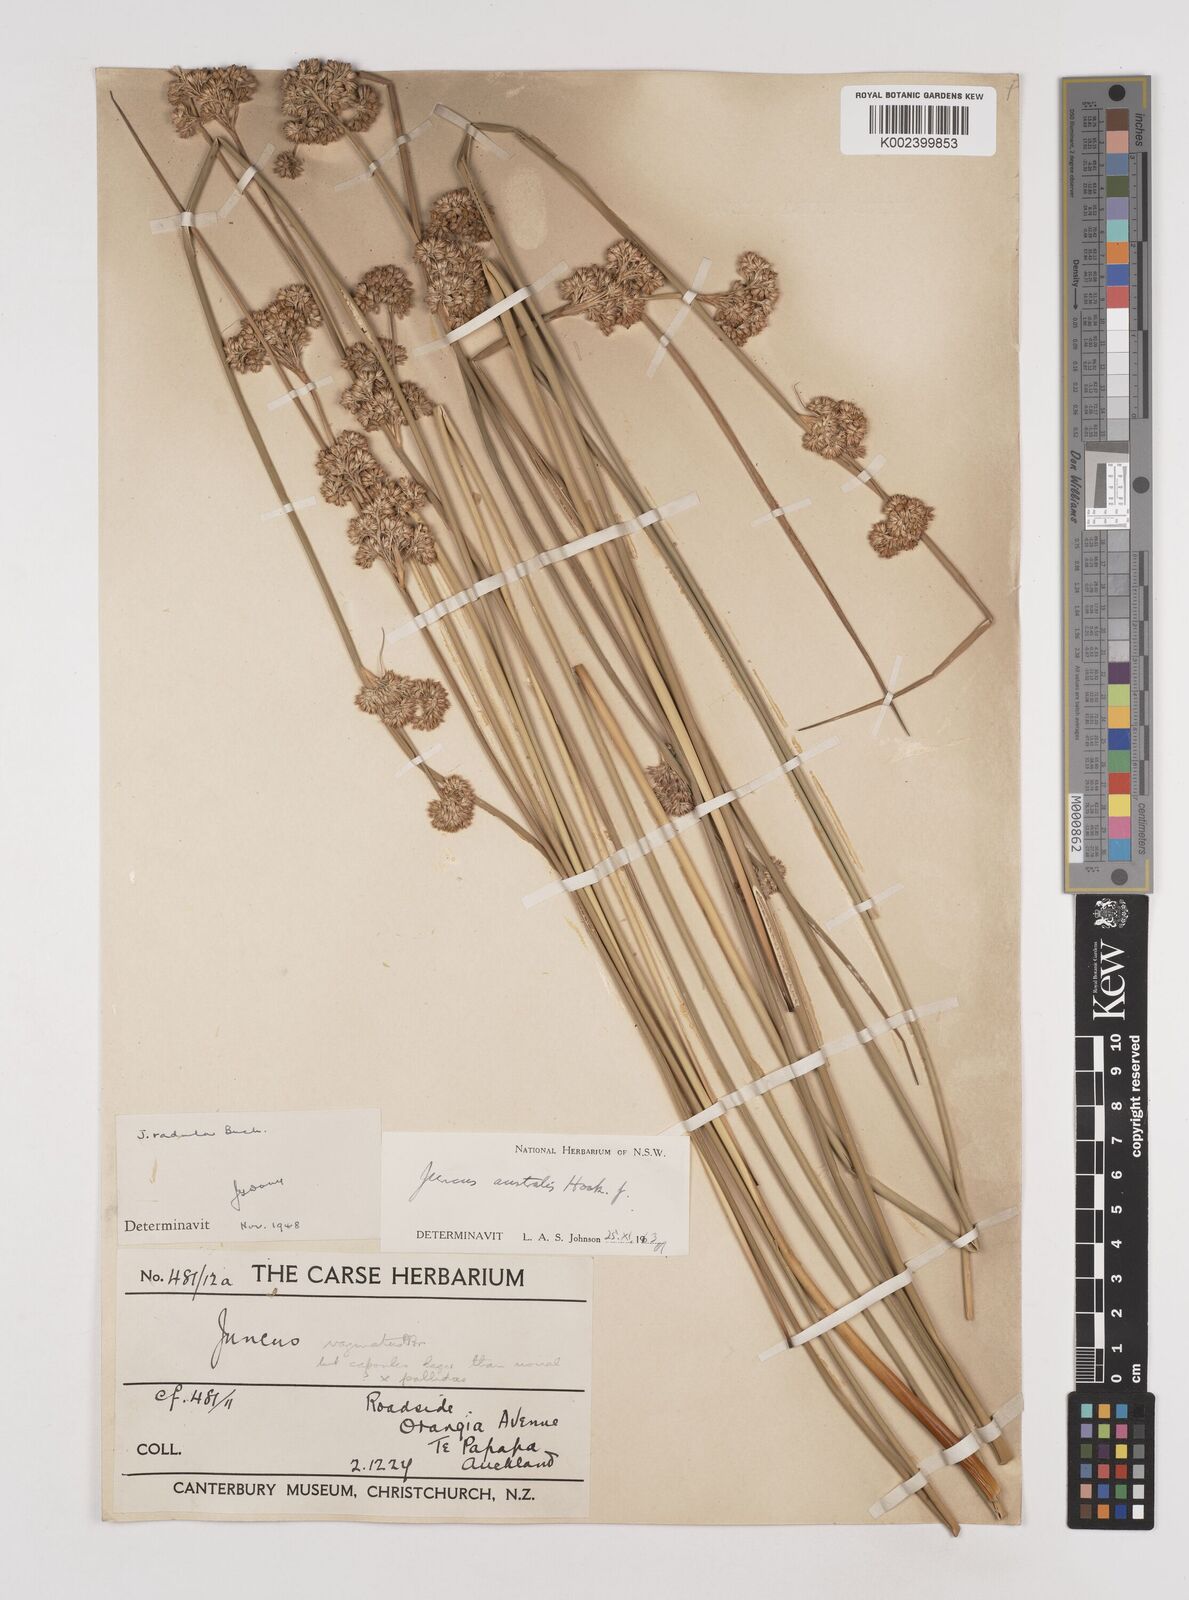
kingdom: Plantae
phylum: Tracheophyta
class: Liliopsida
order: Poales
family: Juncaceae
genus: Juncus
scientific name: Juncus australis
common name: Austral rush
